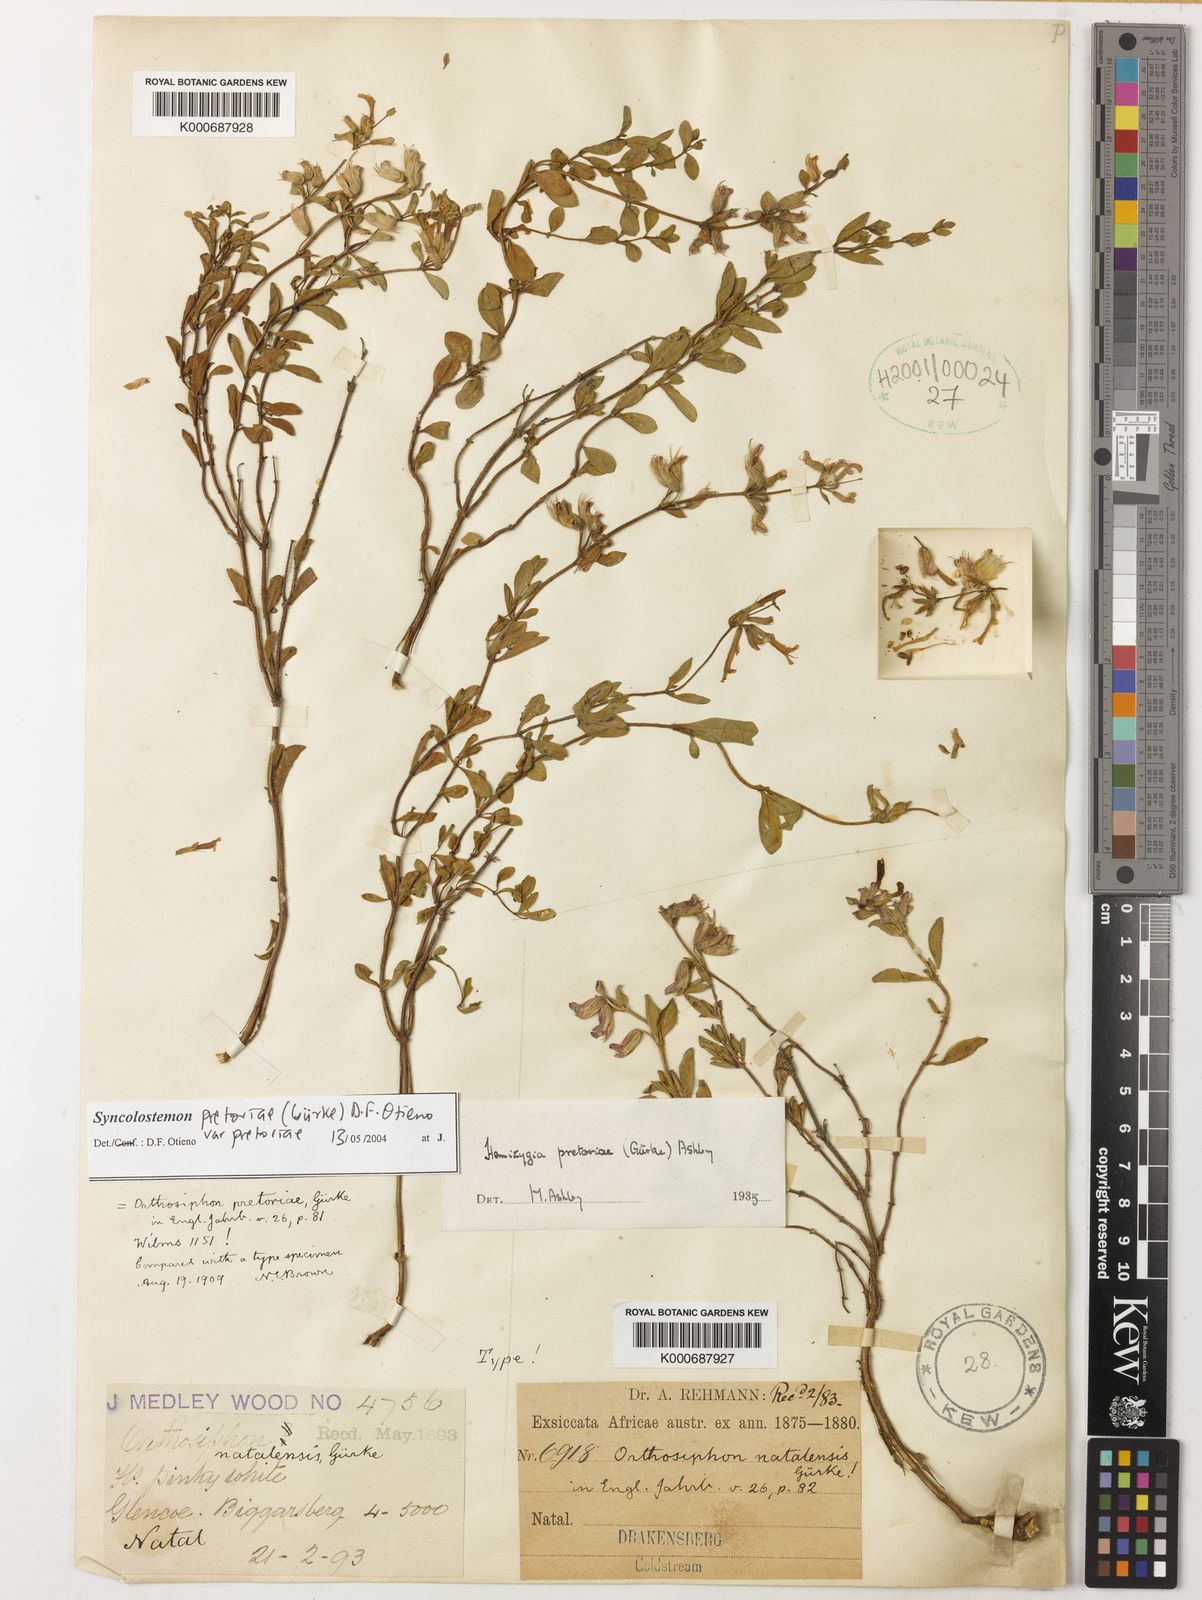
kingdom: Plantae
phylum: Tracheophyta
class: Magnoliopsida
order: Lamiales
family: Lamiaceae
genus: Syncolostemon
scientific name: Syncolostemon pretoriae
